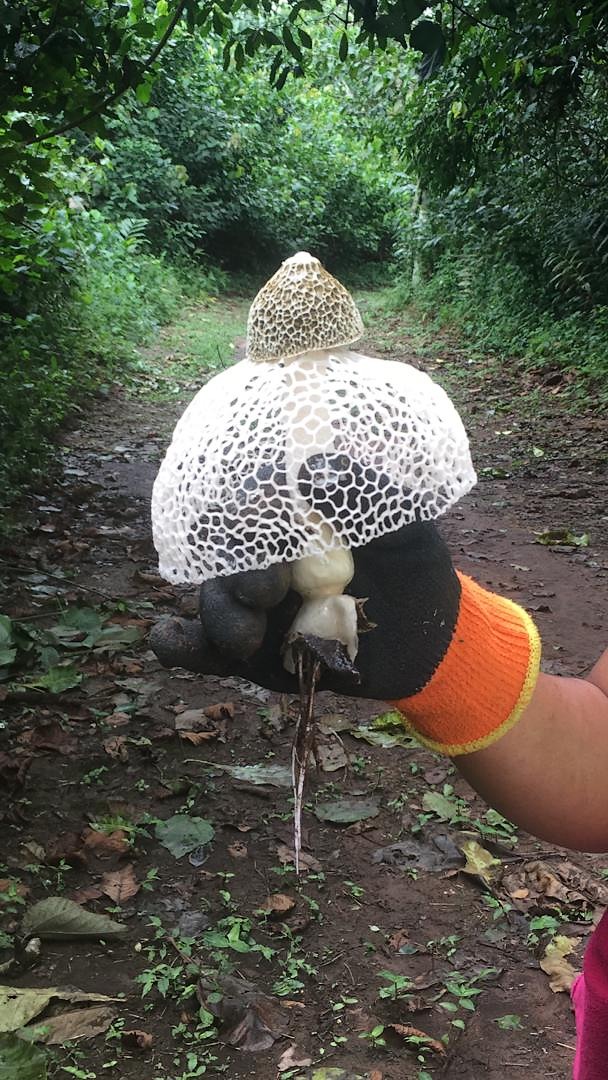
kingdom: Fungi
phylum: Basidiomycota
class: Agaricomycetes
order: Phallales
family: Phallaceae
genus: Phallus
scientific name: Phallus indusiatus
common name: Bridal veil stinkhorn
